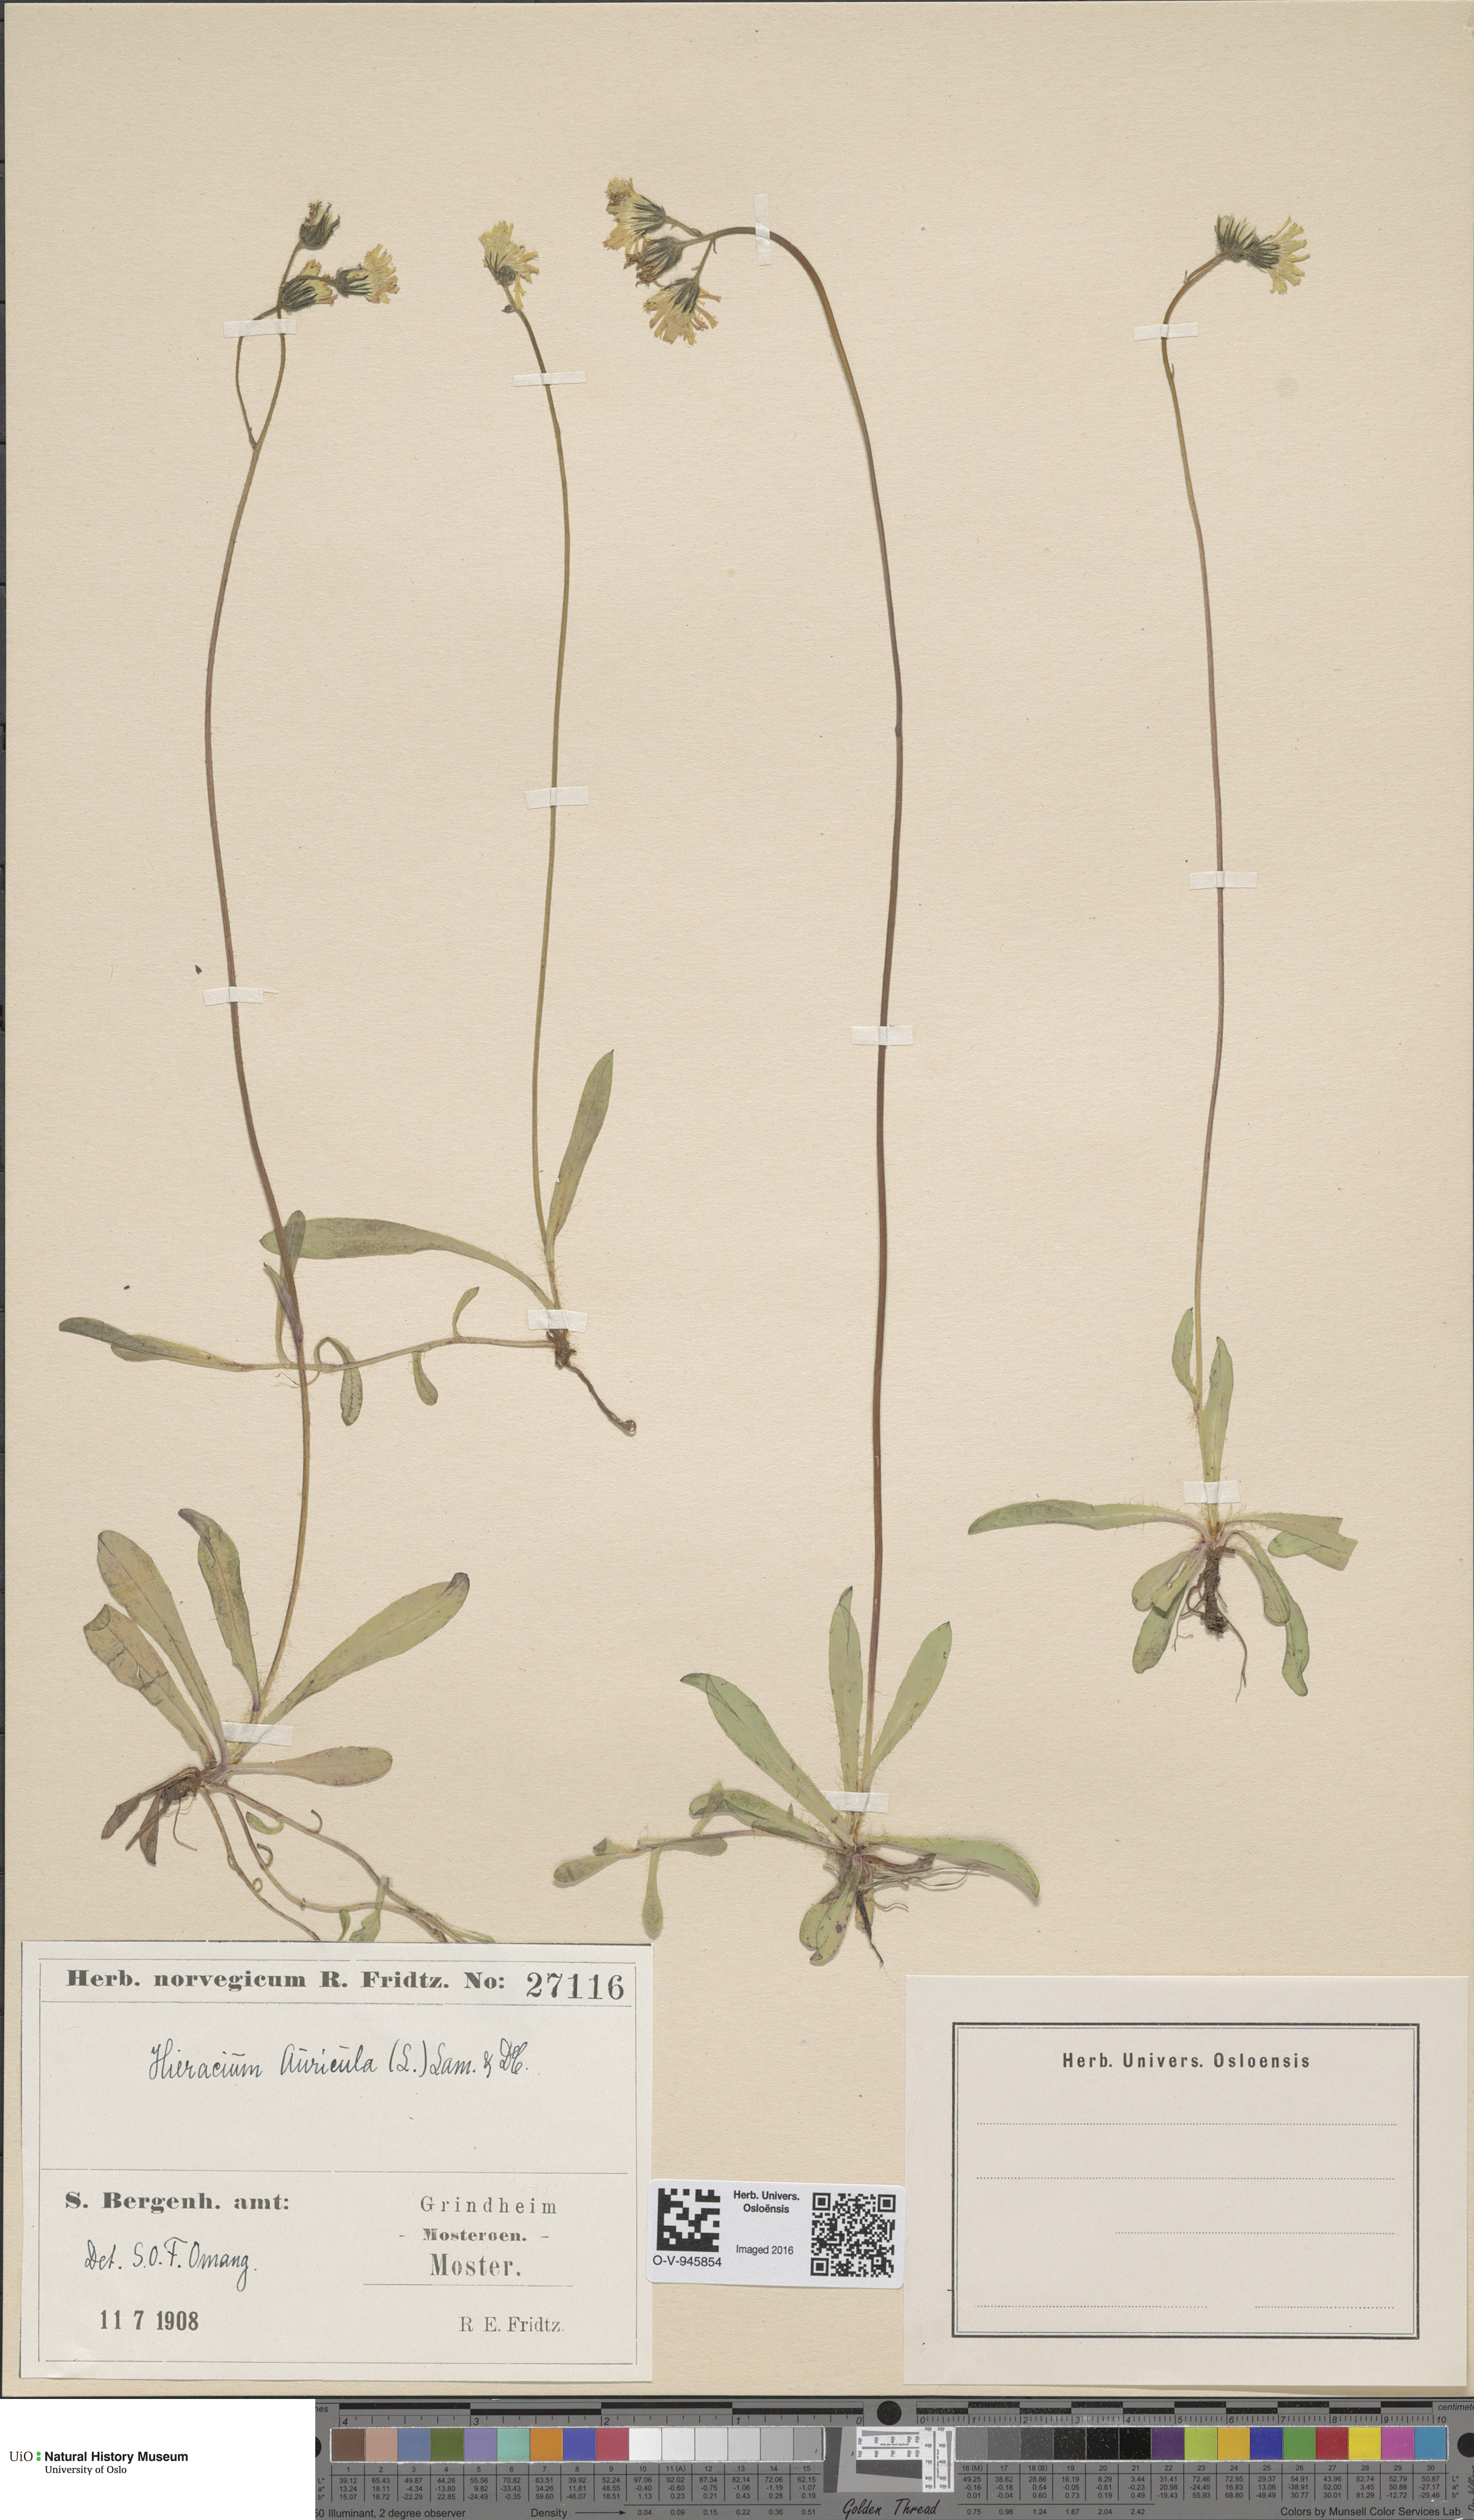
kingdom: Plantae
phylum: Tracheophyta
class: Magnoliopsida
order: Asterales
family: Asteraceae
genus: Pilosella
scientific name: Pilosella lactucella
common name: Glaucous fox-and-cubs
